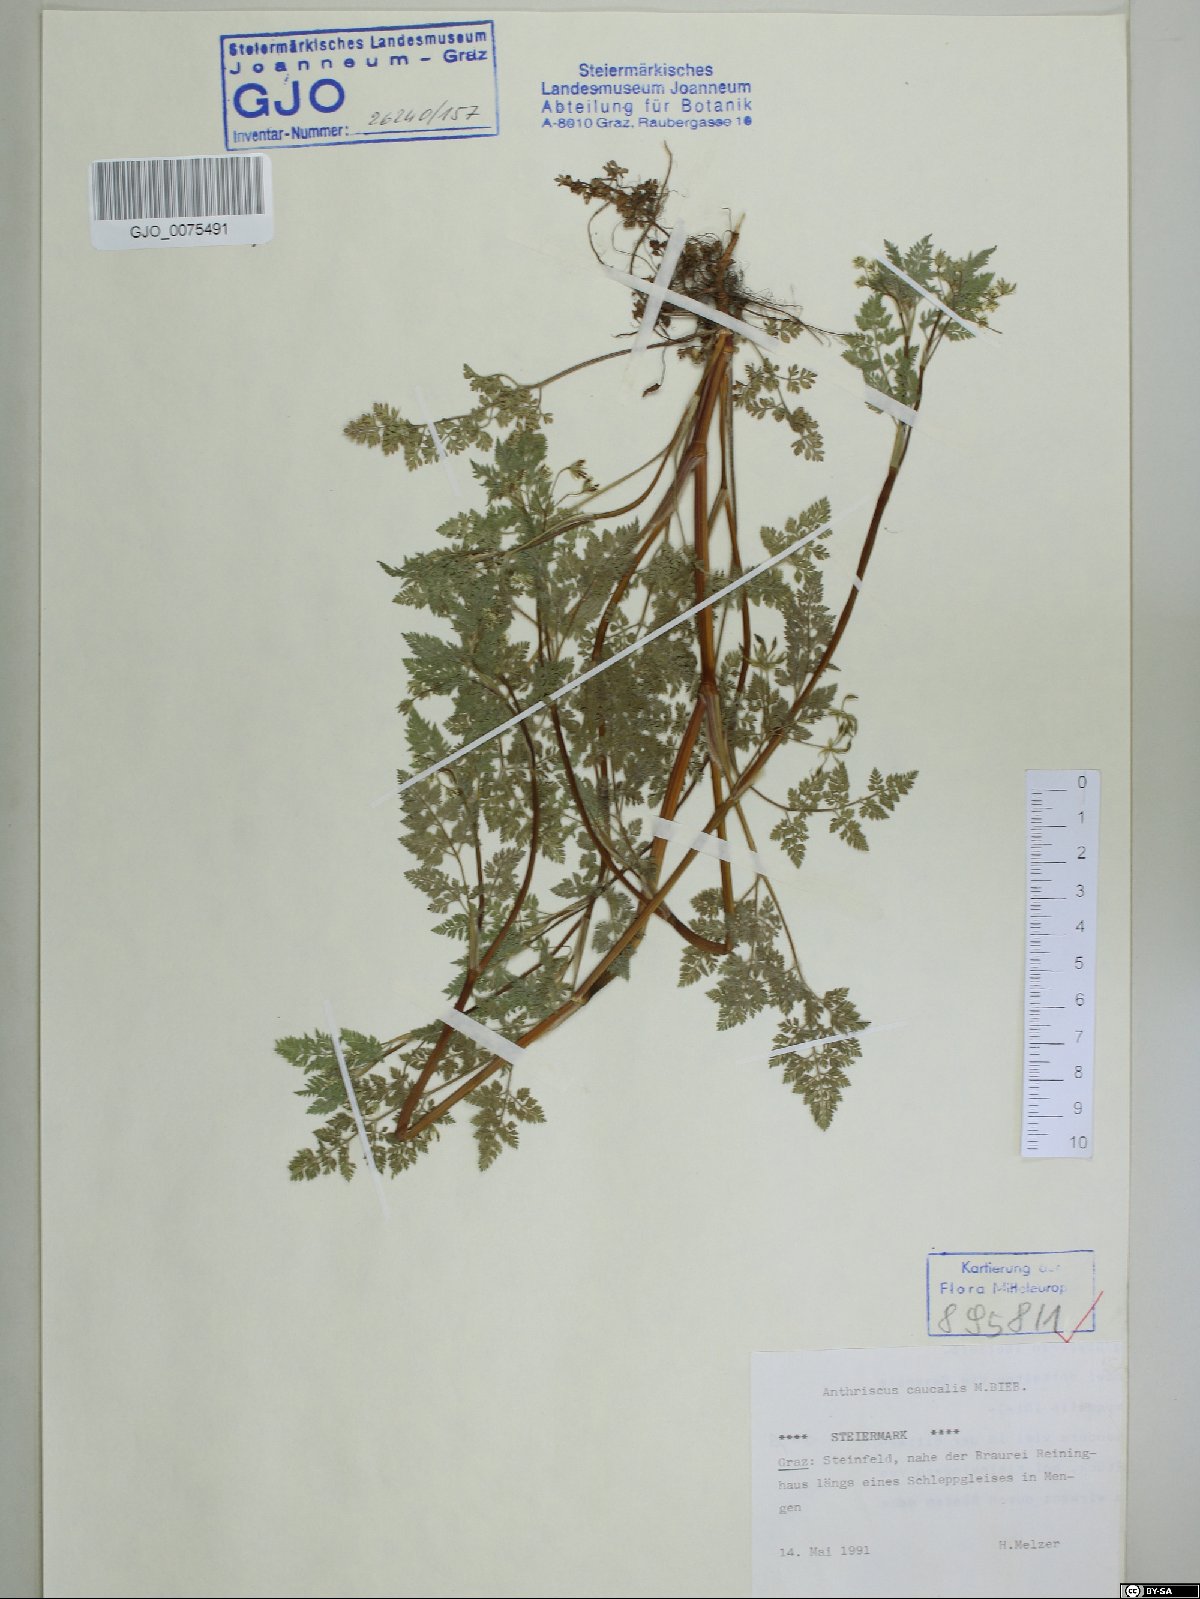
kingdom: Plantae
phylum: Tracheophyta
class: Magnoliopsida
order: Apiales
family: Apiaceae
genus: Anthriscus
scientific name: Anthriscus caucalis
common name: Bur chervil
